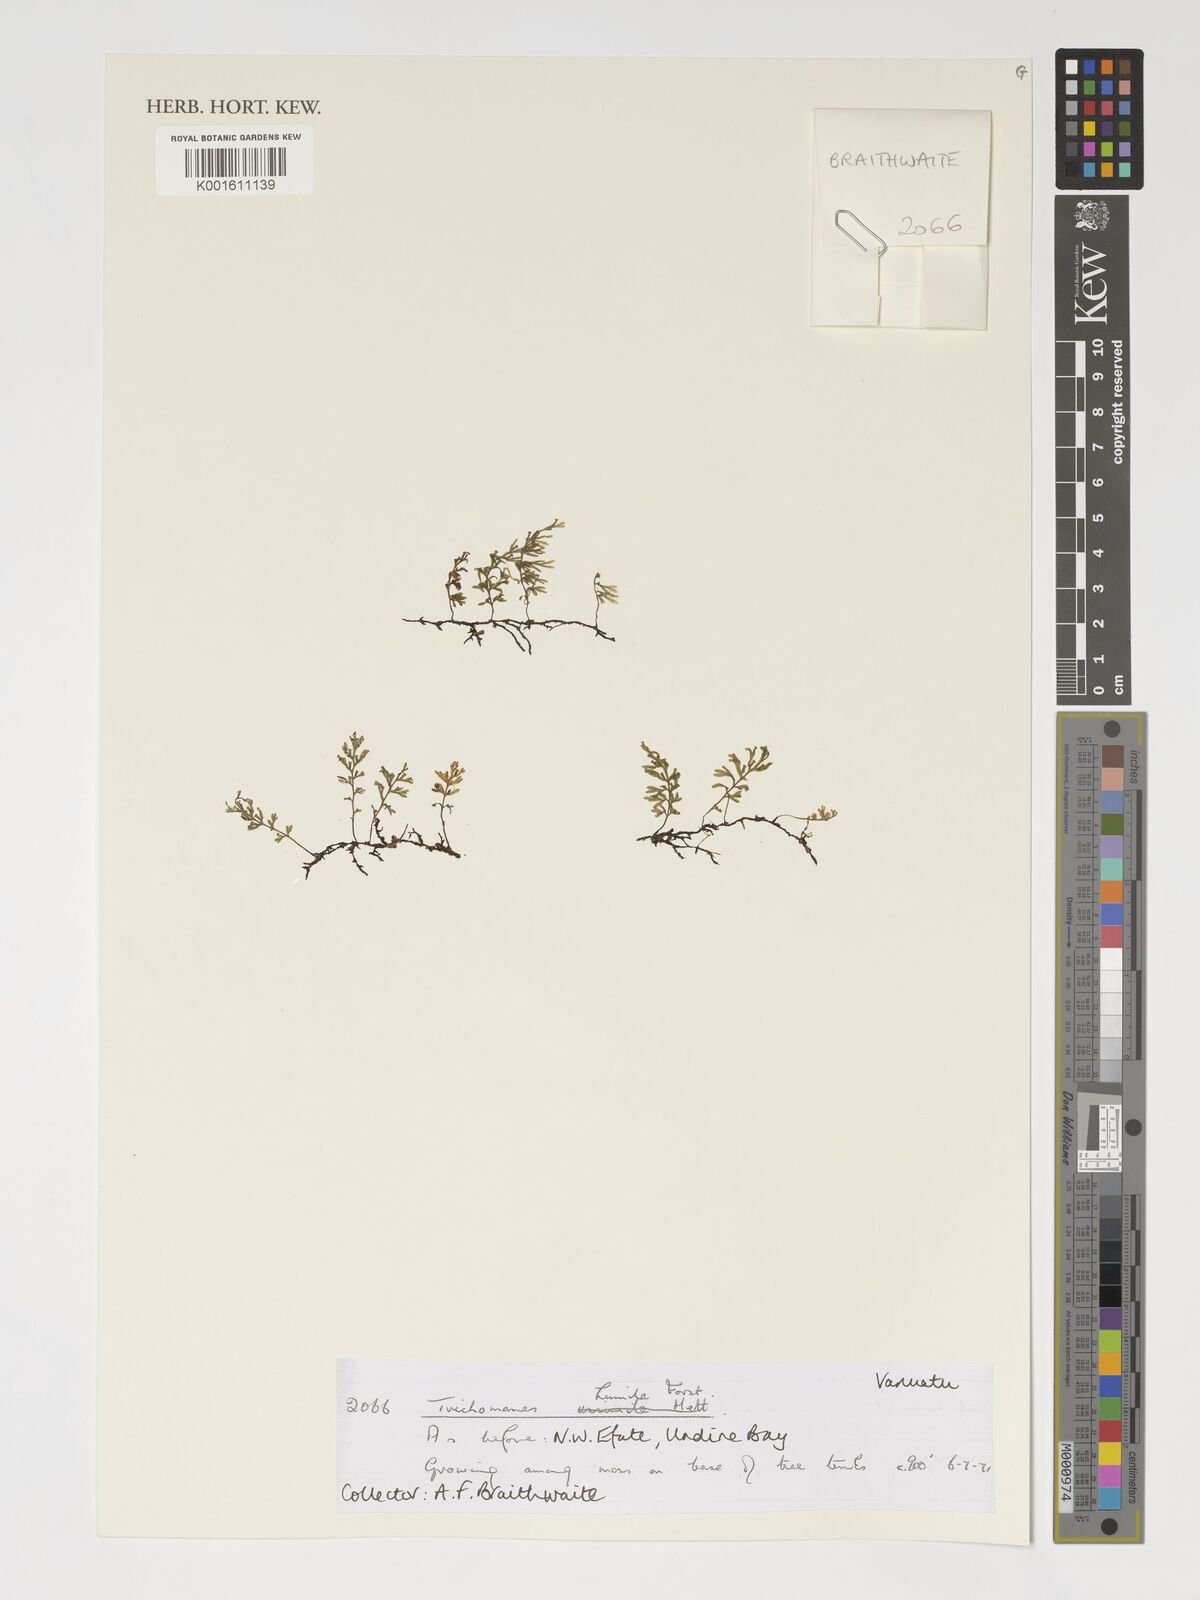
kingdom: Plantae
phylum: Tracheophyta
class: Polypodiopsida
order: Hymenophyllales
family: Hymenophyllaceae
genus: Crepidomanes
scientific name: Crepidomanes humile
